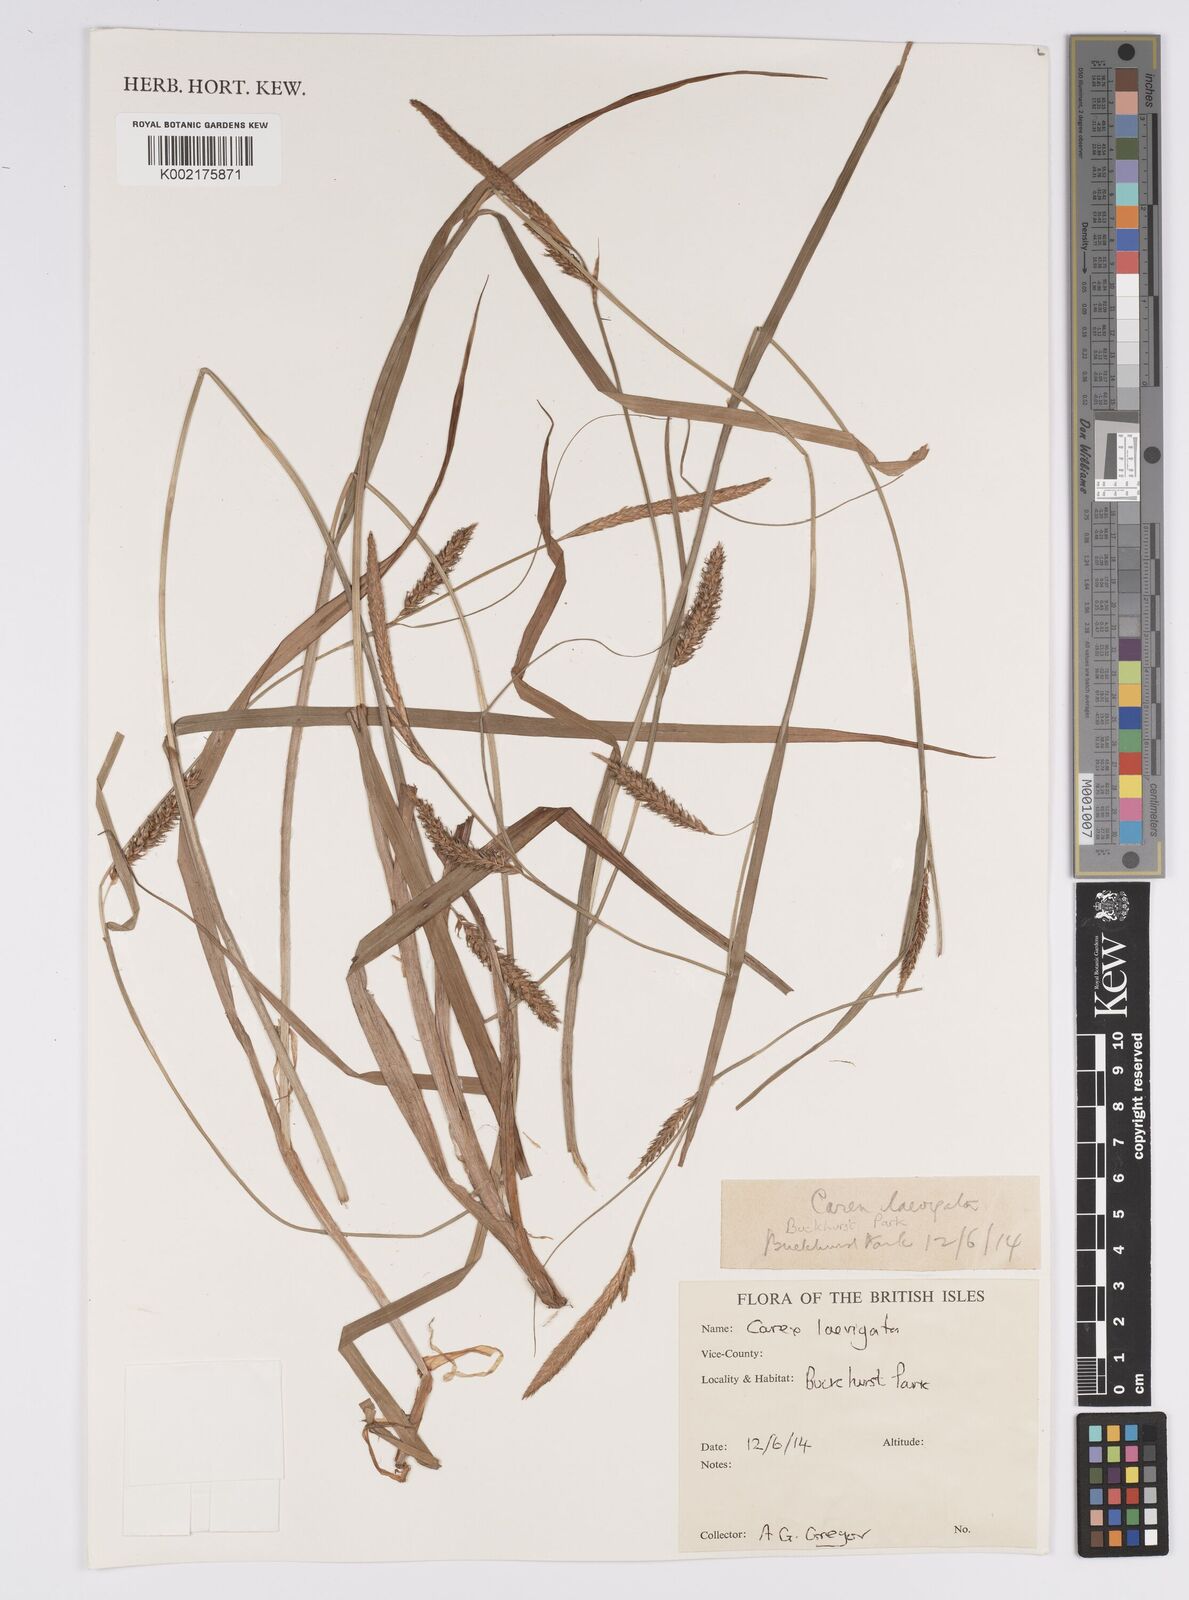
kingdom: Plantae
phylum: Tracheophyta
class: Liliopsida
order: Poales
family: Cyperaceae
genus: Carex
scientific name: Carex laevigata
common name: Smooth-stalked sedge
